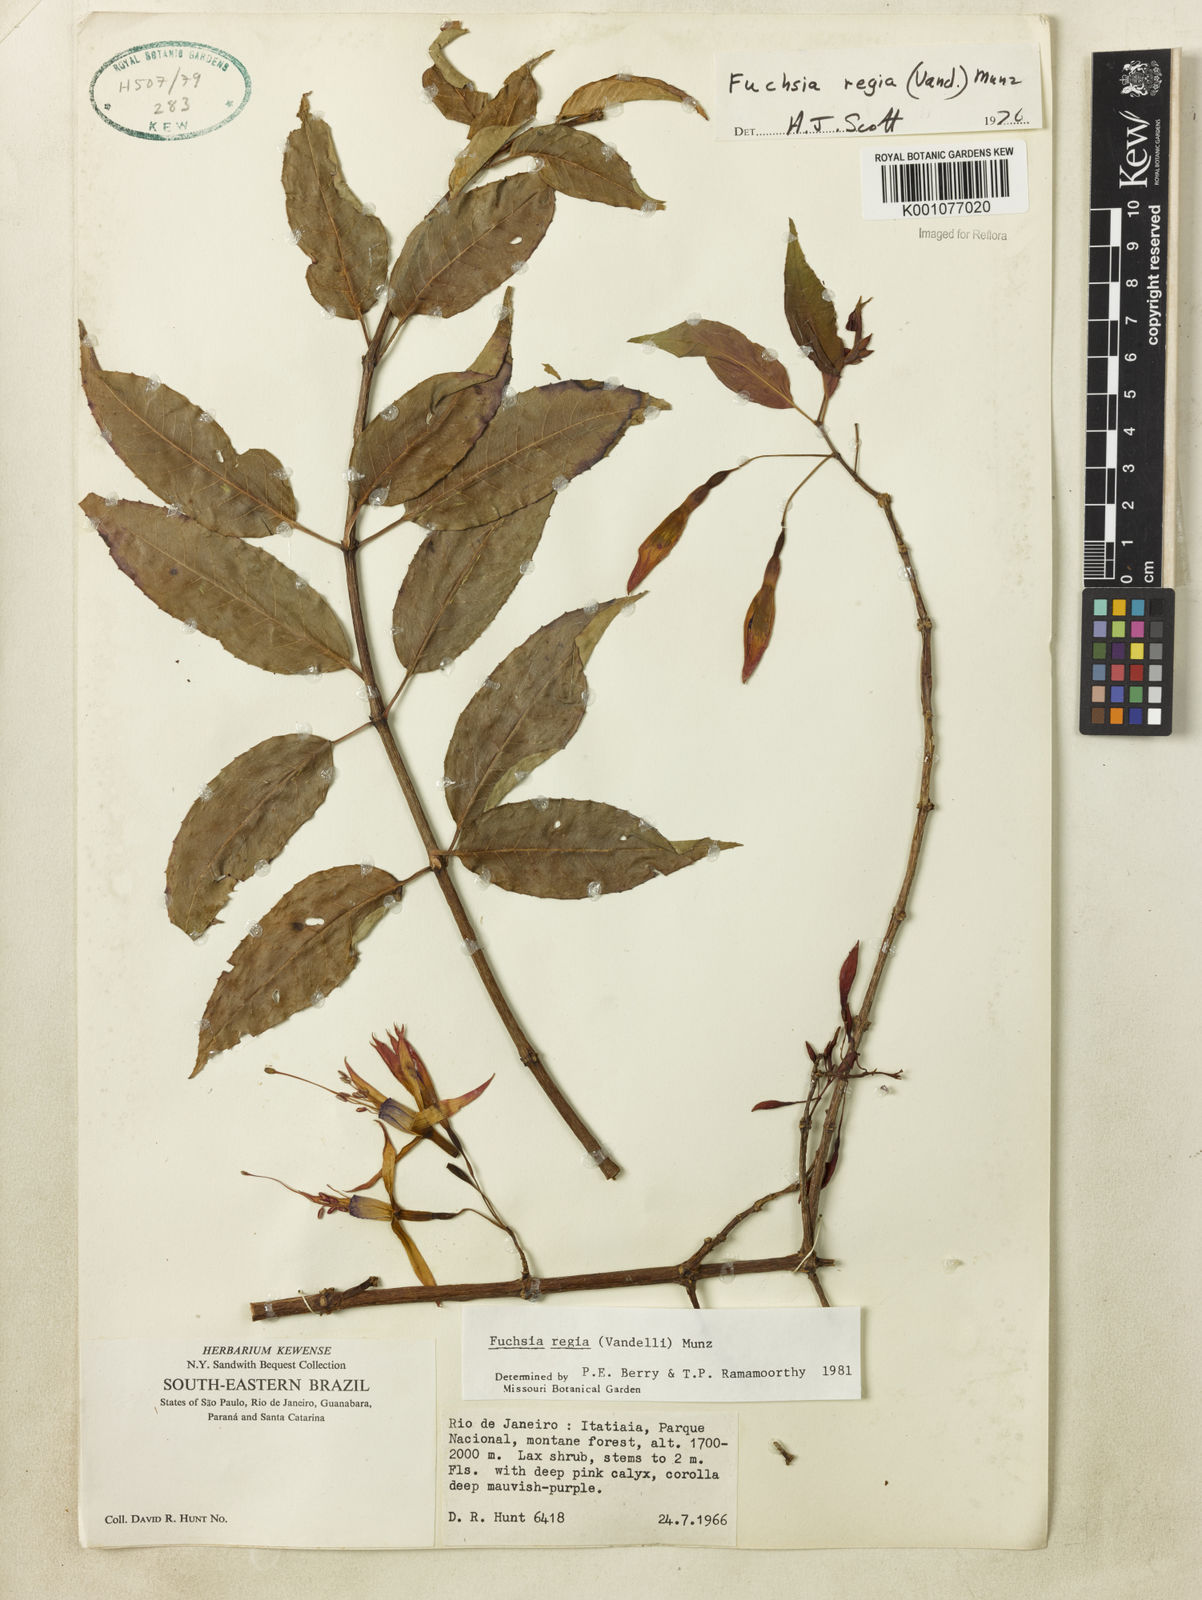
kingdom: Plantae
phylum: Tracheophyta
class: Magnoliopsida
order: Myrtales
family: Onagraceae
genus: Fuchsia
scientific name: Fuchsia regia
